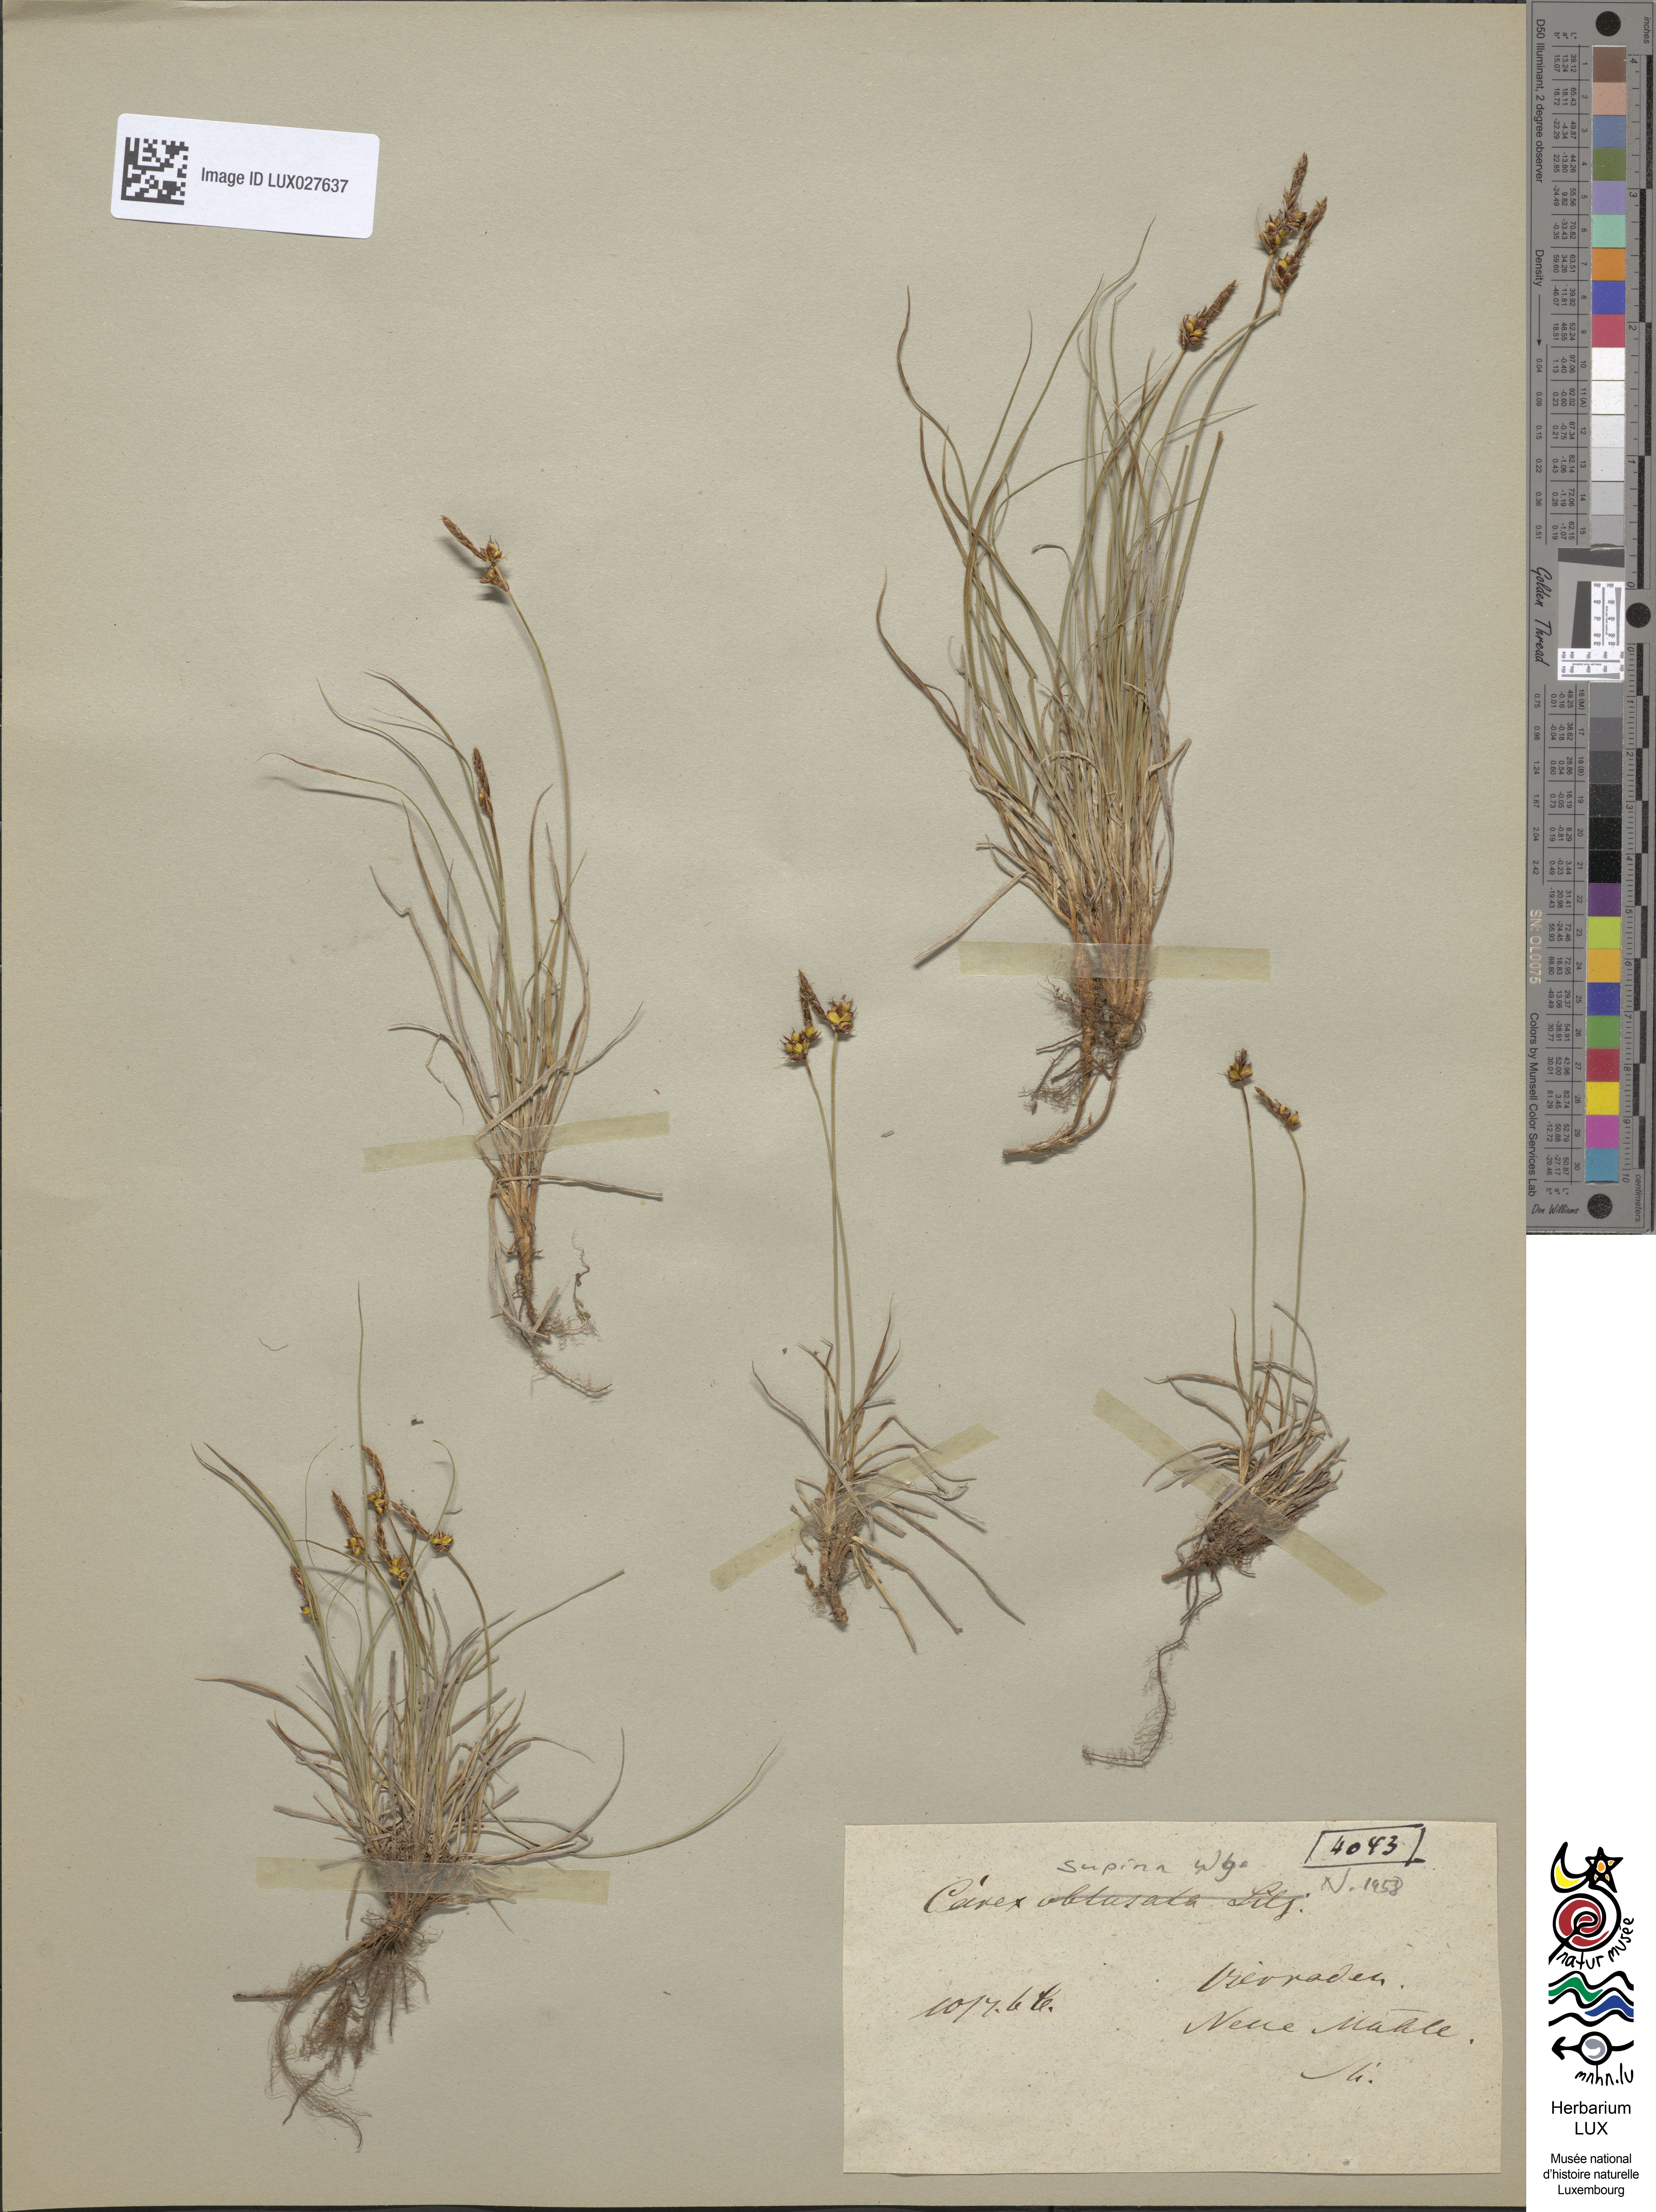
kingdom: Plantae
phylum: Tracheophyta
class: Liliopsida
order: Poales
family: Cyperaceae
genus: Carex
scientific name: Carex obtusata
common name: Blunt sedge
